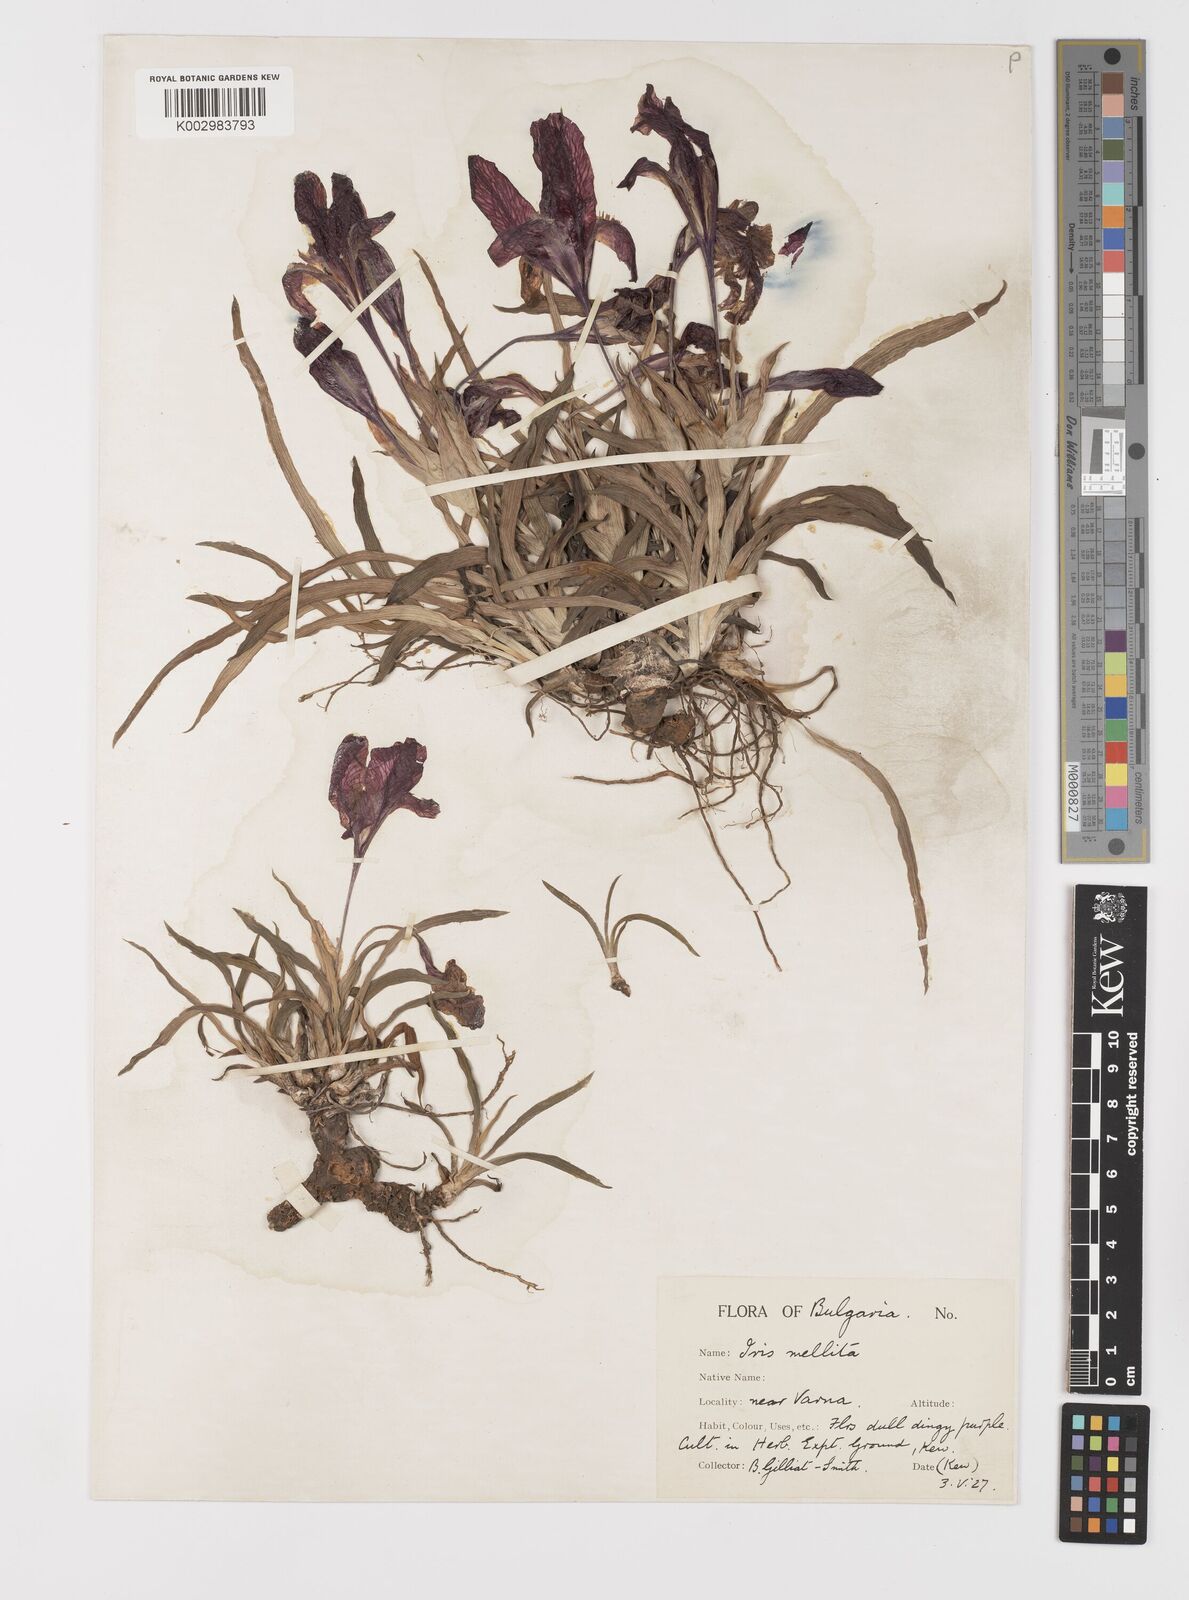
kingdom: Plantae
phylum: Tracheophyta
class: Liliopsida
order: Asparagales
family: Iridaceae
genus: Iris
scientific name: Iris suaveolens
